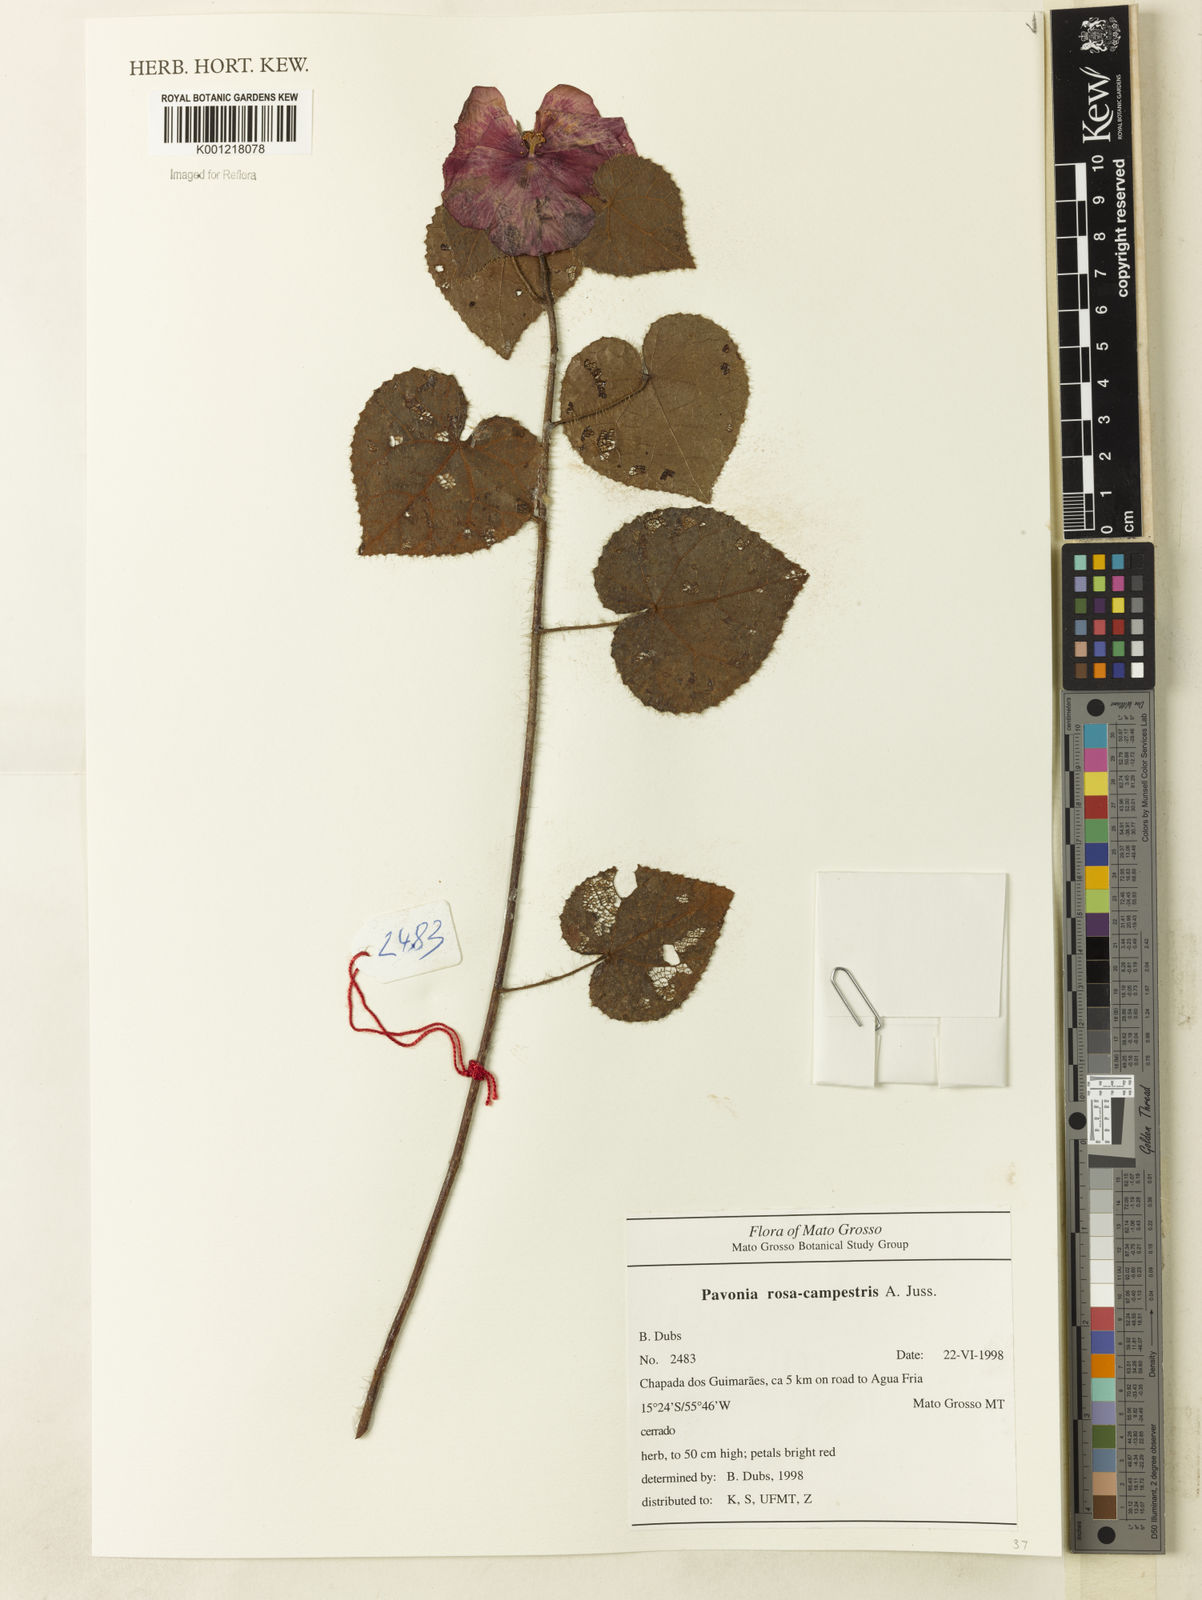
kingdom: Plantae
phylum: Tracheophyta
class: Magnoliopsida
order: Malvales
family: Malvaceae
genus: Pavonia
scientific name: Pavonia rosa-campestris
